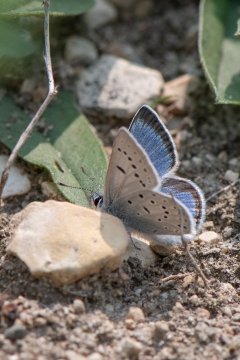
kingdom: Animalia
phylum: Arthropoda
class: Insecta
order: Lepidoptera
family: Lycaenidae
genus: Plebejus
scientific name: Plebejus saepiolus
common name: Greenish Blue
